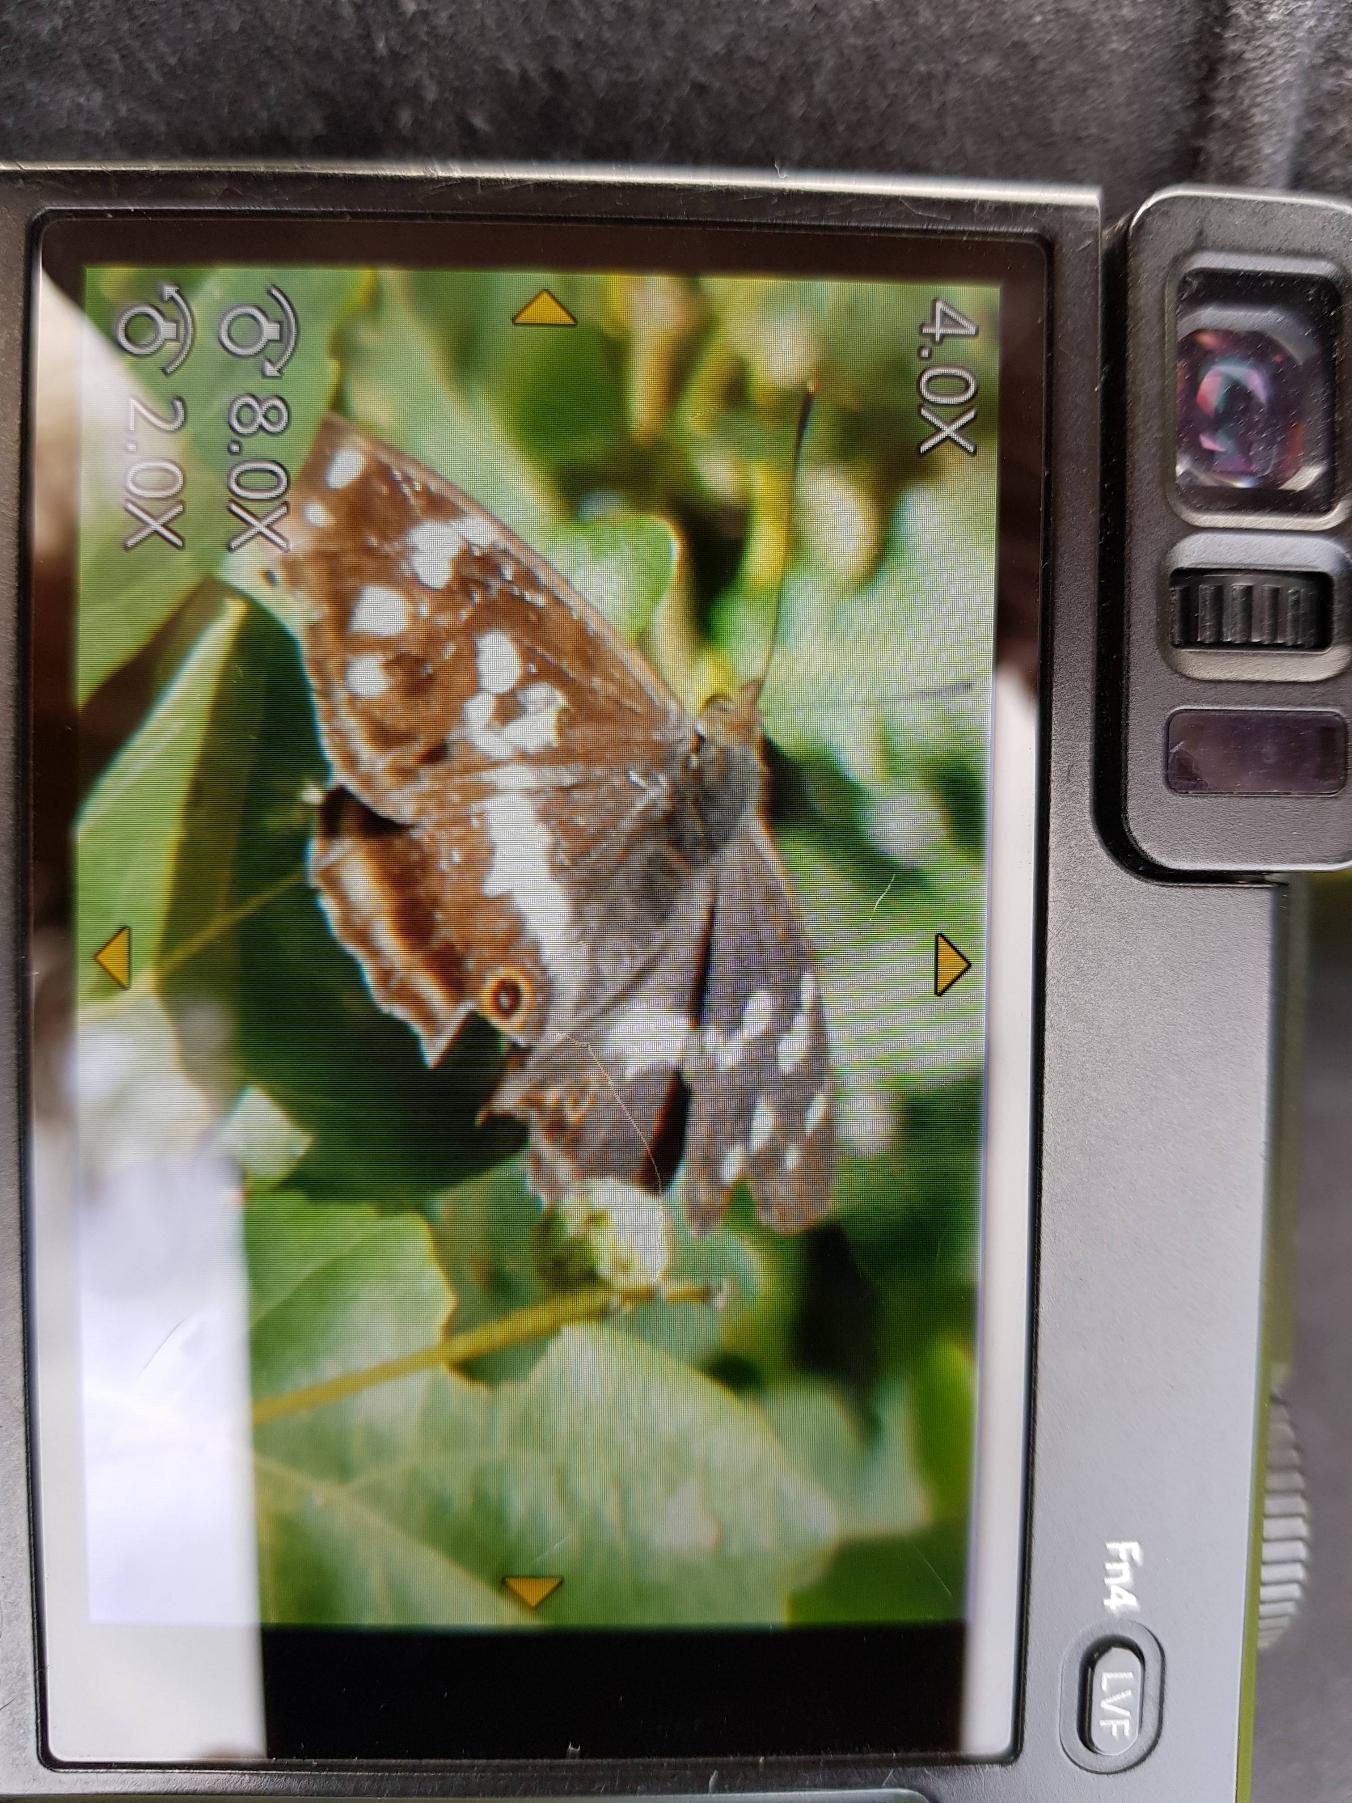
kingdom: Animalia
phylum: Arthropoda
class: Insecta
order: Lepidoptera
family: Nymphalidae
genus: Apatura
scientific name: Apatura iris
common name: Iris
